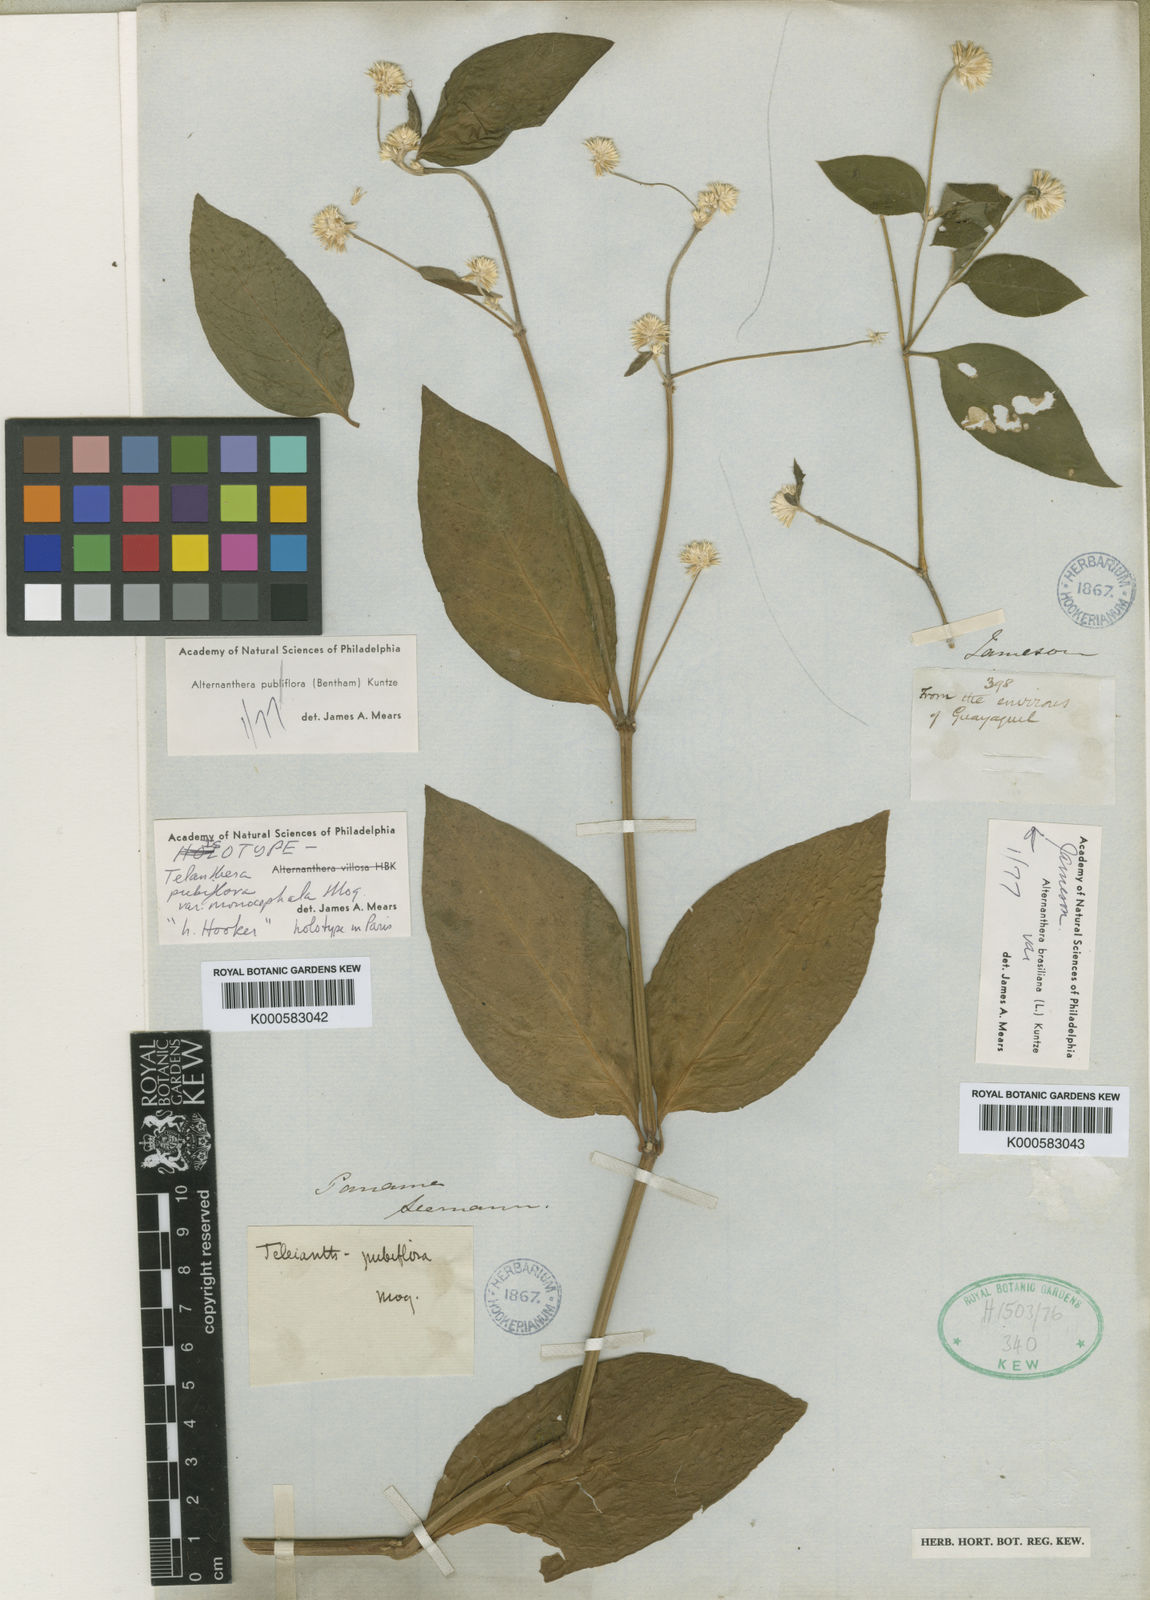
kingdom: Plantae
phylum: Tracheophyta
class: Magnoliopsida
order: Caryophyllales
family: Amaranthaceae
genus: Alternanthera
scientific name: Alternanthera pubiflora
